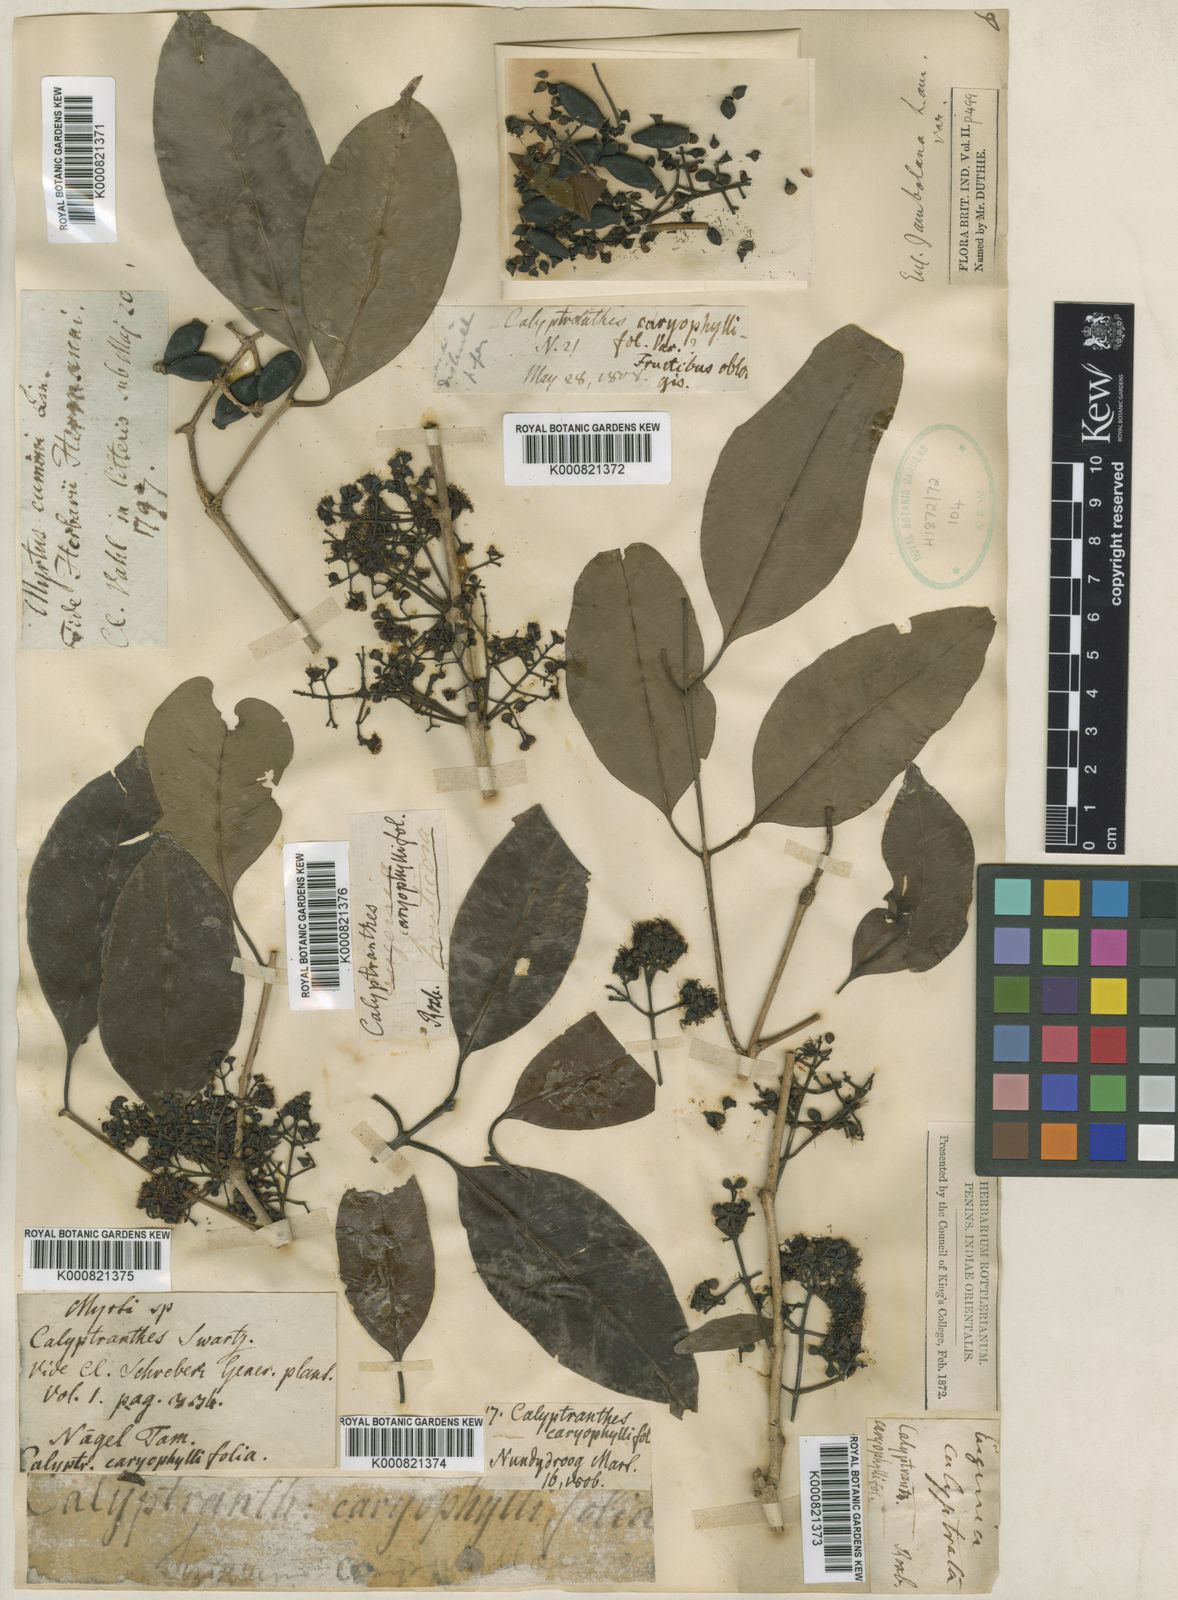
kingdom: Plantae
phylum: Tracheophyta
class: Magnoliopsida
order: Myrtales
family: Myrtaceae
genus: Syzygium
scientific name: Syzygium cumini
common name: Java plum
